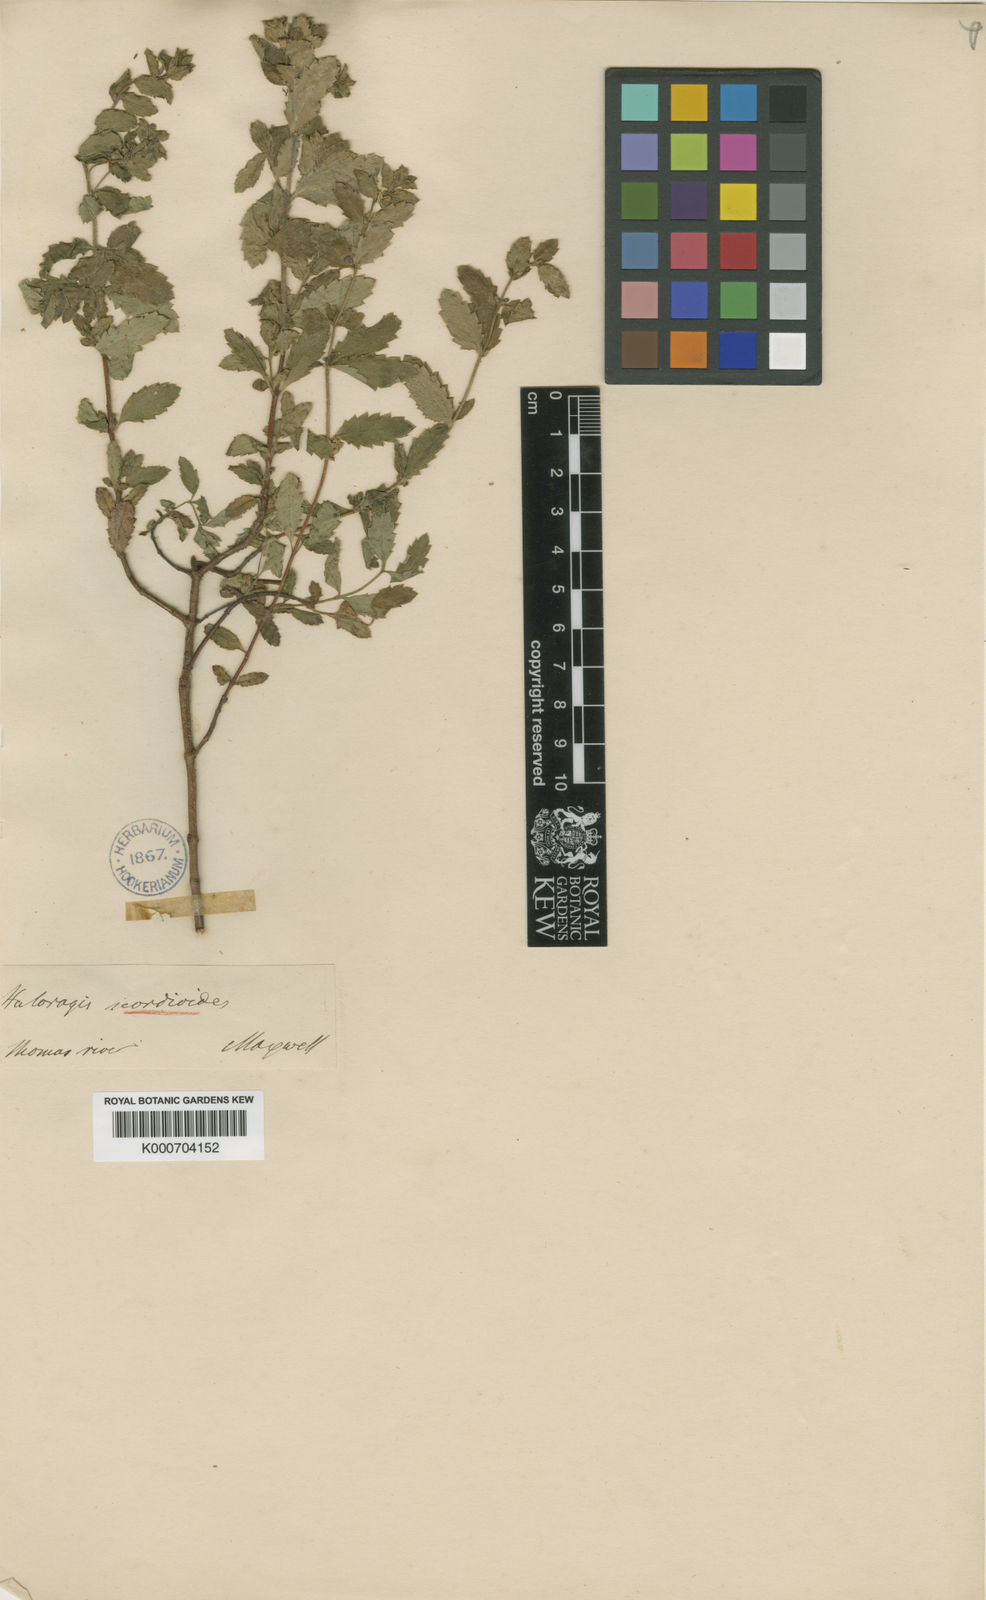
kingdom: Plantae
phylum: Tracheophyta
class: Magnoliopsida
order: Saxifragales
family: Haloragaceae
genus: Gonocarpus
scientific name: Gonocarpus scordioides
